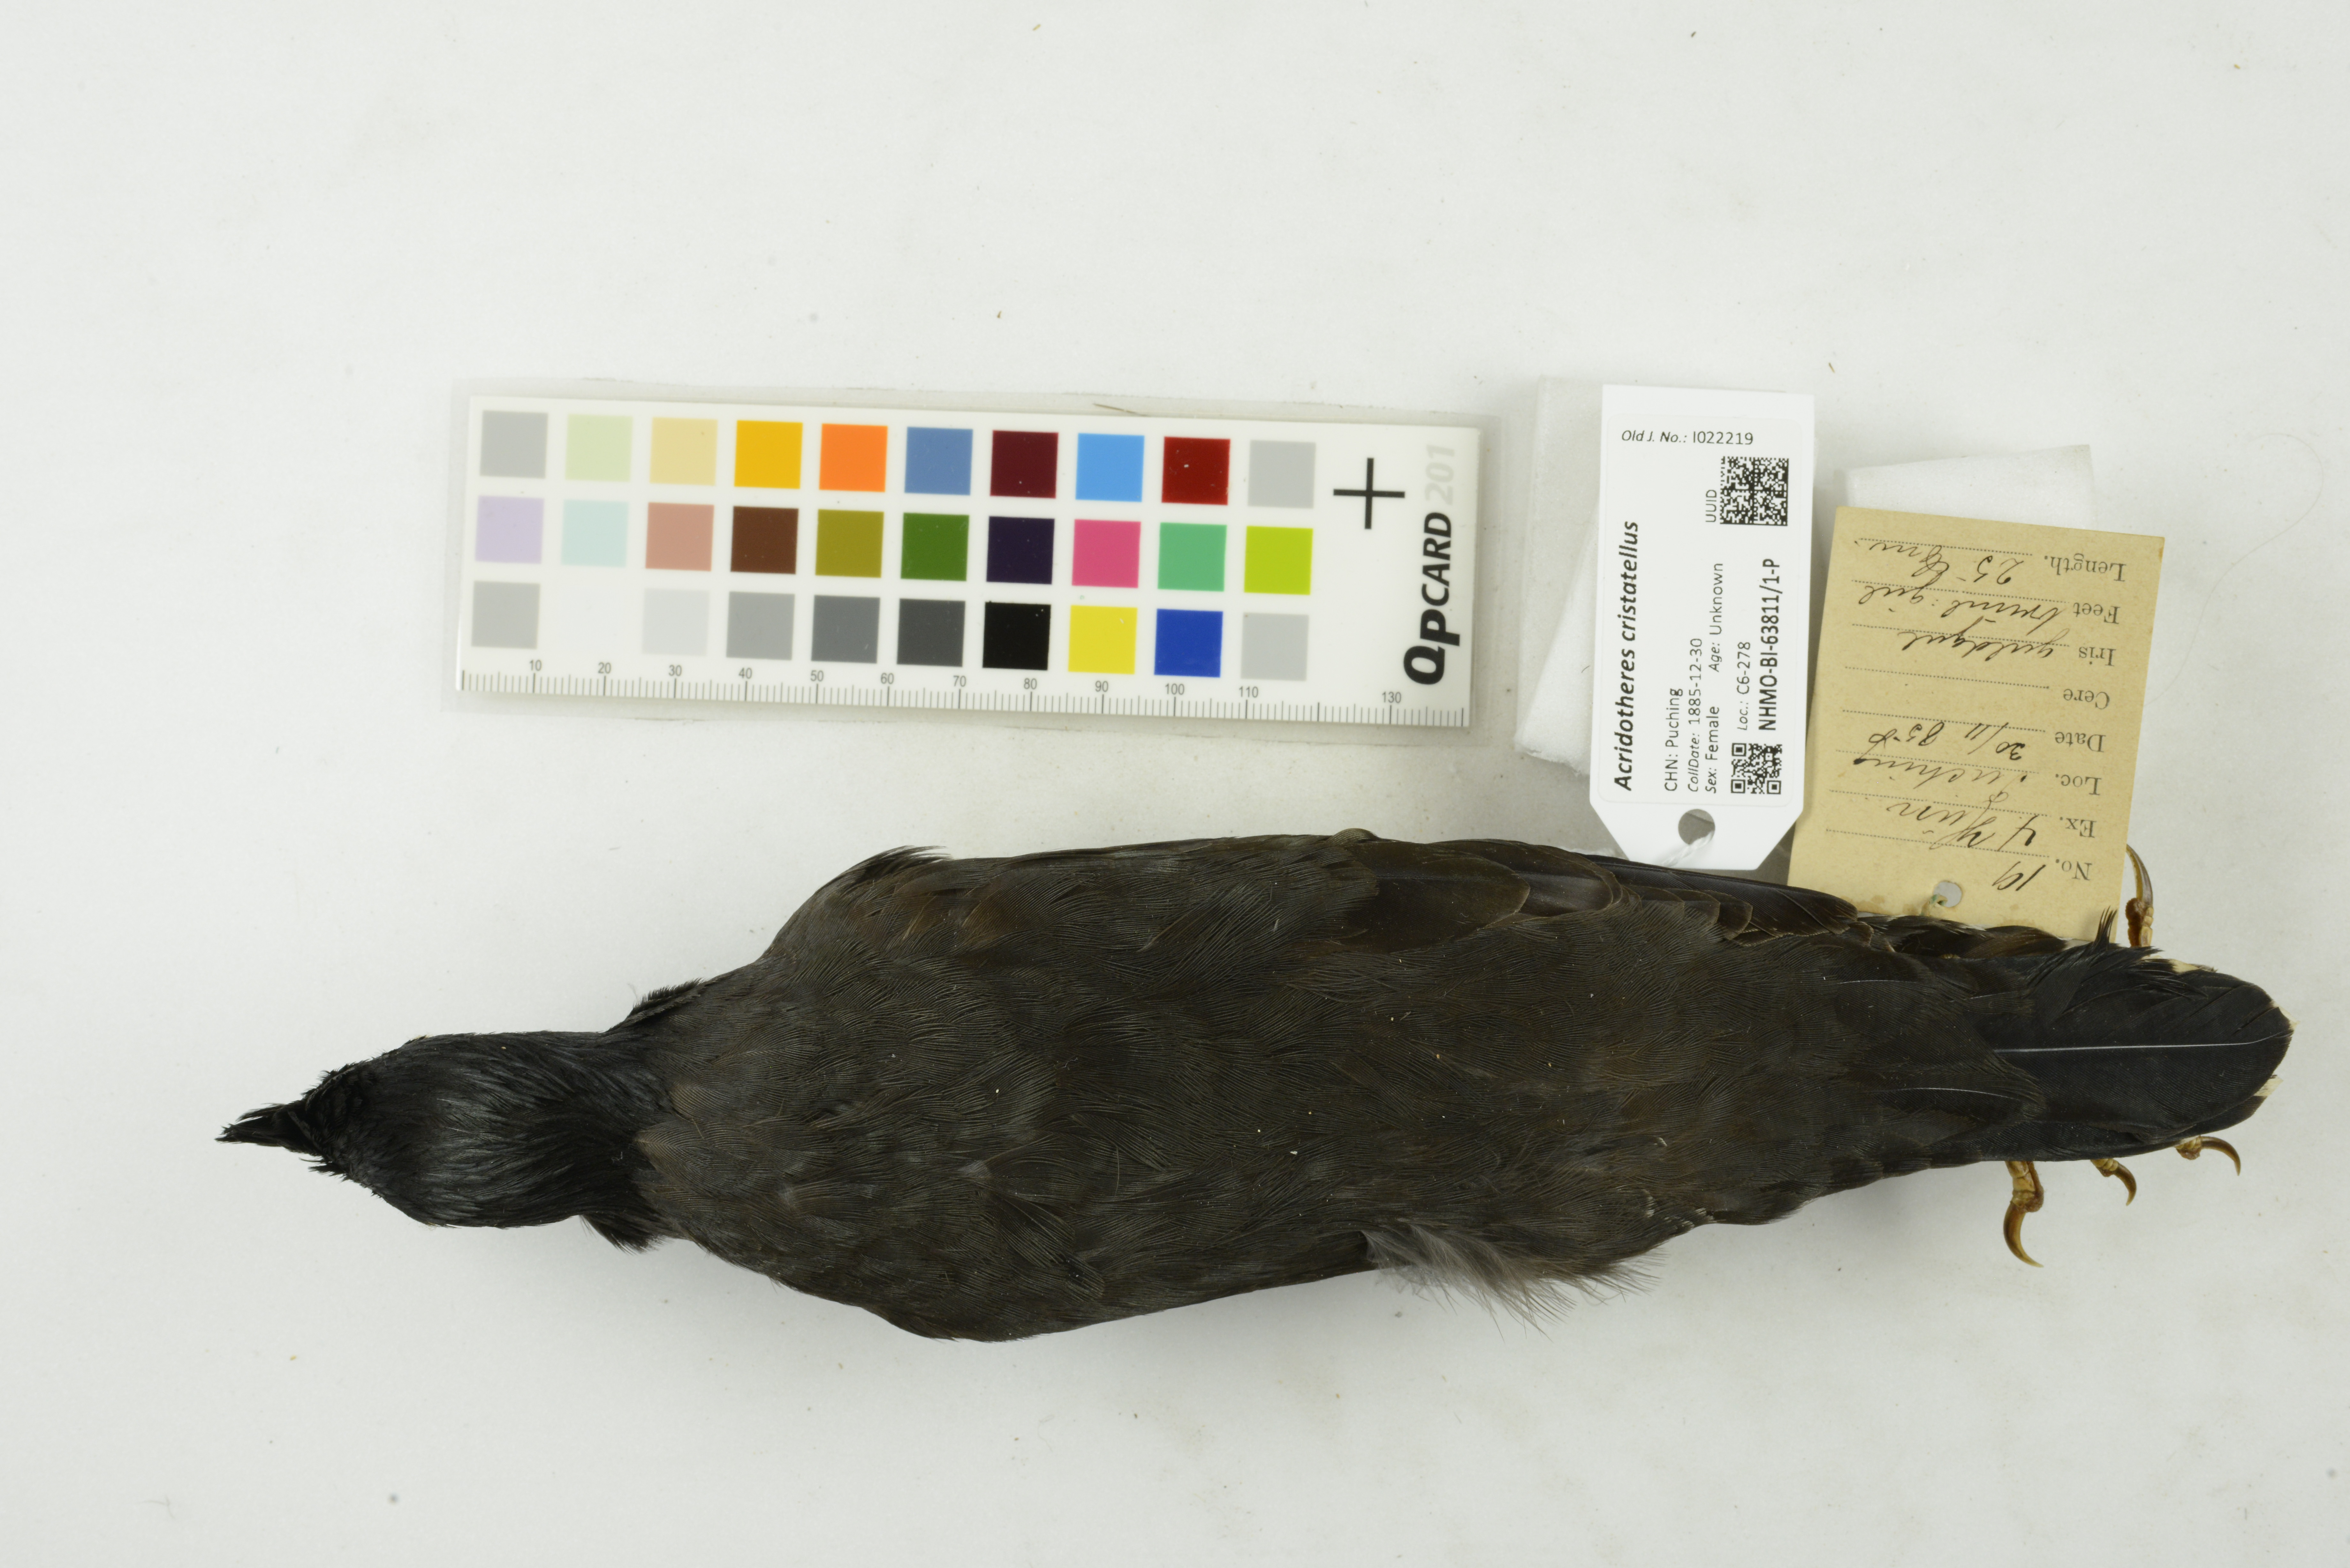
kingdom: Animalia
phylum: Chordata
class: Aves
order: Passeriformes
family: Sturnidae
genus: Acridotheres
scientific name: Acridotheres cristatellus
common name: Crested myna
